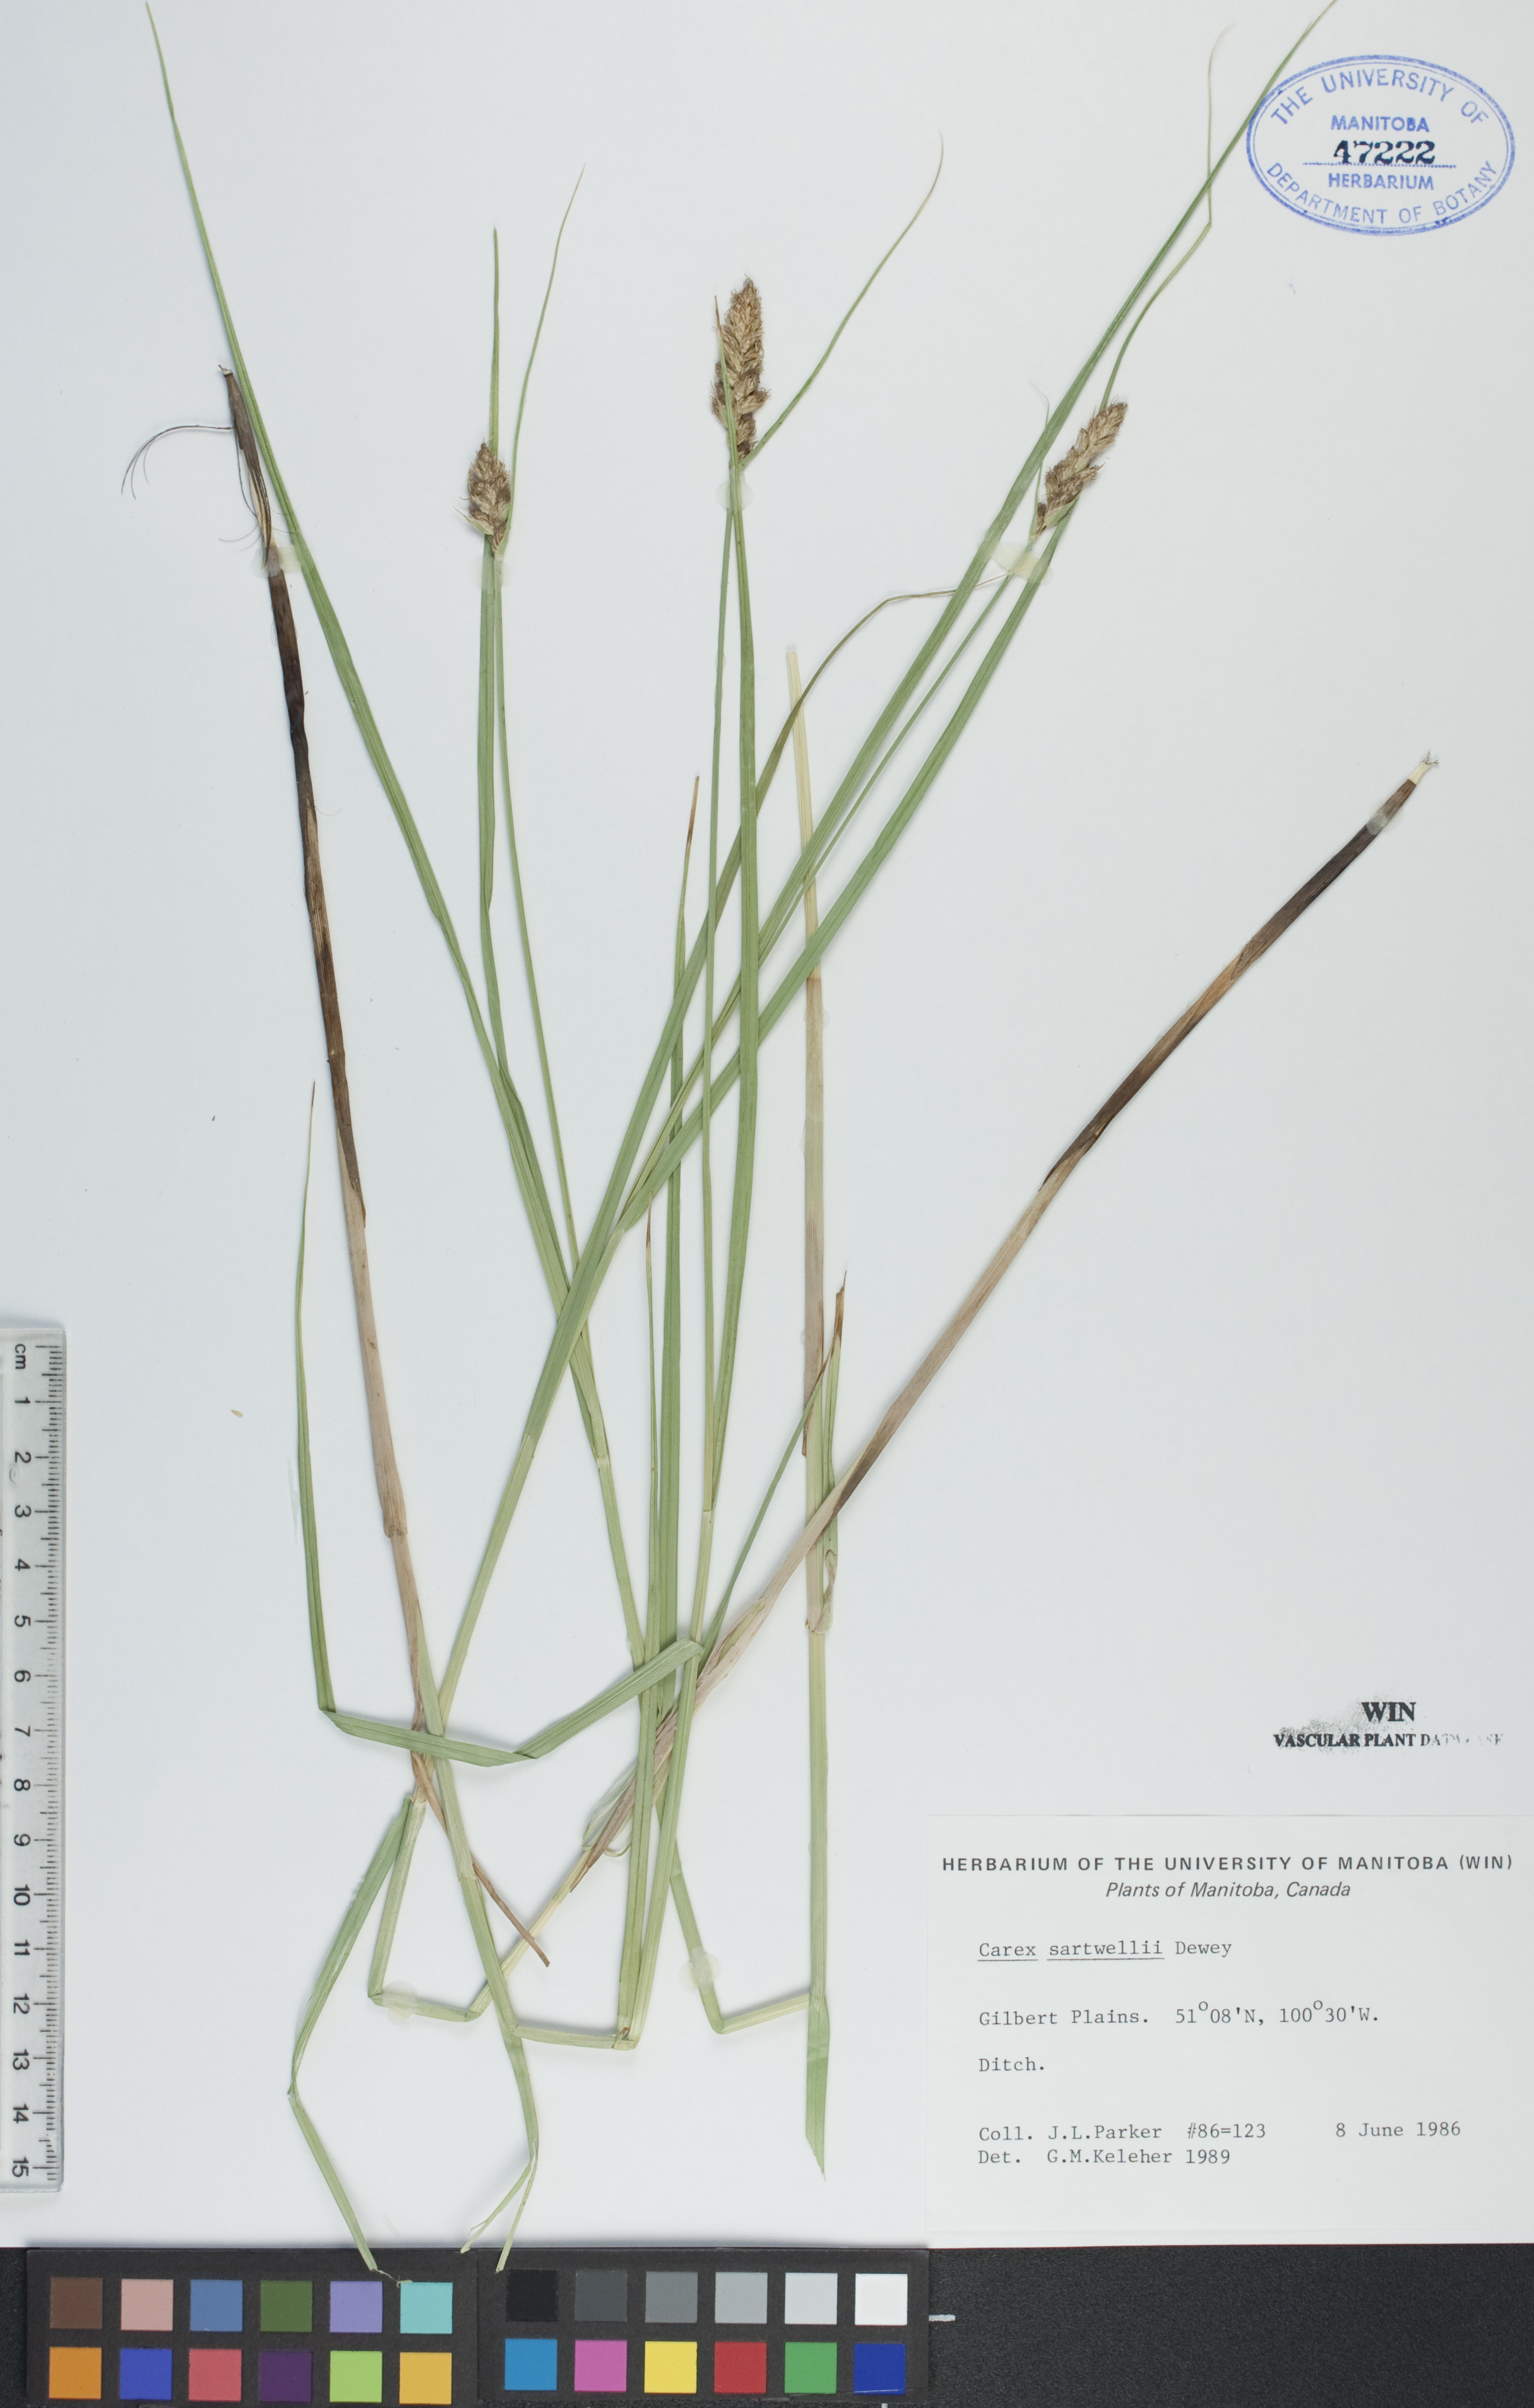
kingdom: Plantae
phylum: Tracheophyta
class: Liliopsida
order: Poales
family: Cyperaceae
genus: Carex
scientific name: Carex sartwellii
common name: Sartwell's sedge
